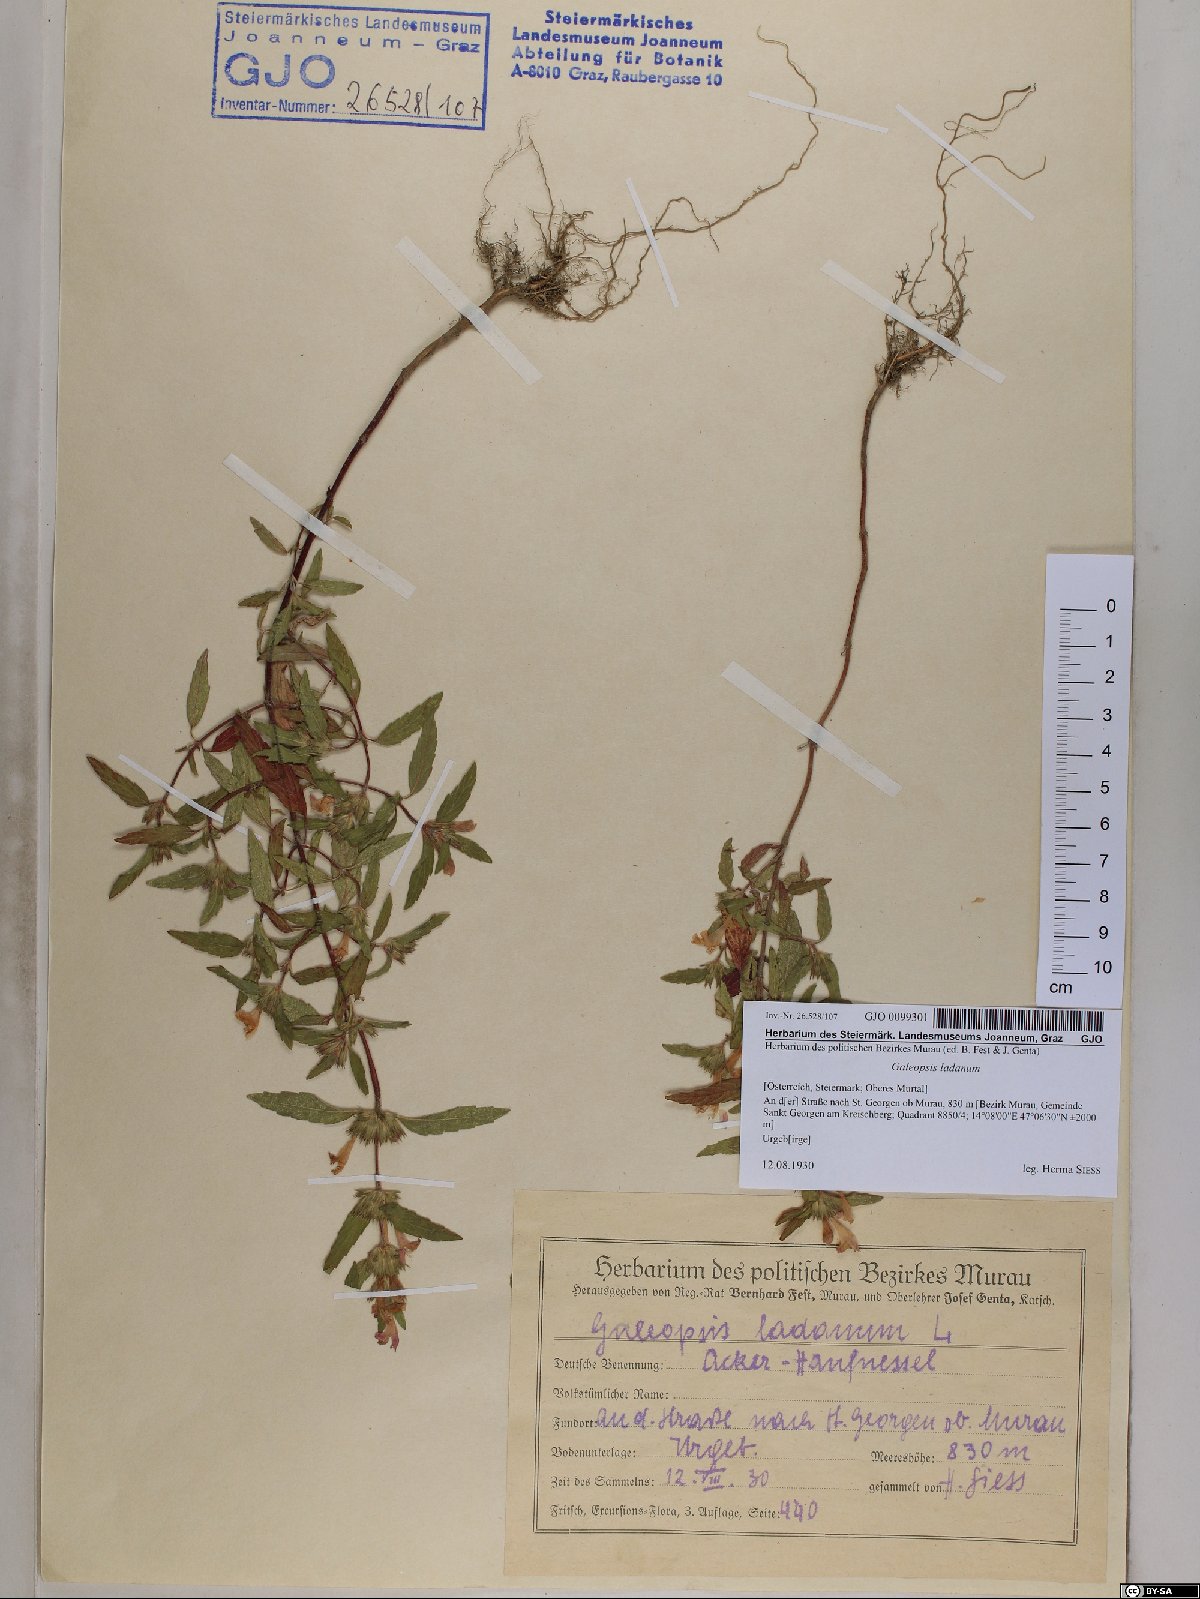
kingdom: Plantae
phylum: Tracheophyta
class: Magnoliopsida
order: Lamiales
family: Lamiaceae
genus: Galeopsis
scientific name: Galeopsis ladanum
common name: Broad-leaved hemp-nettle
